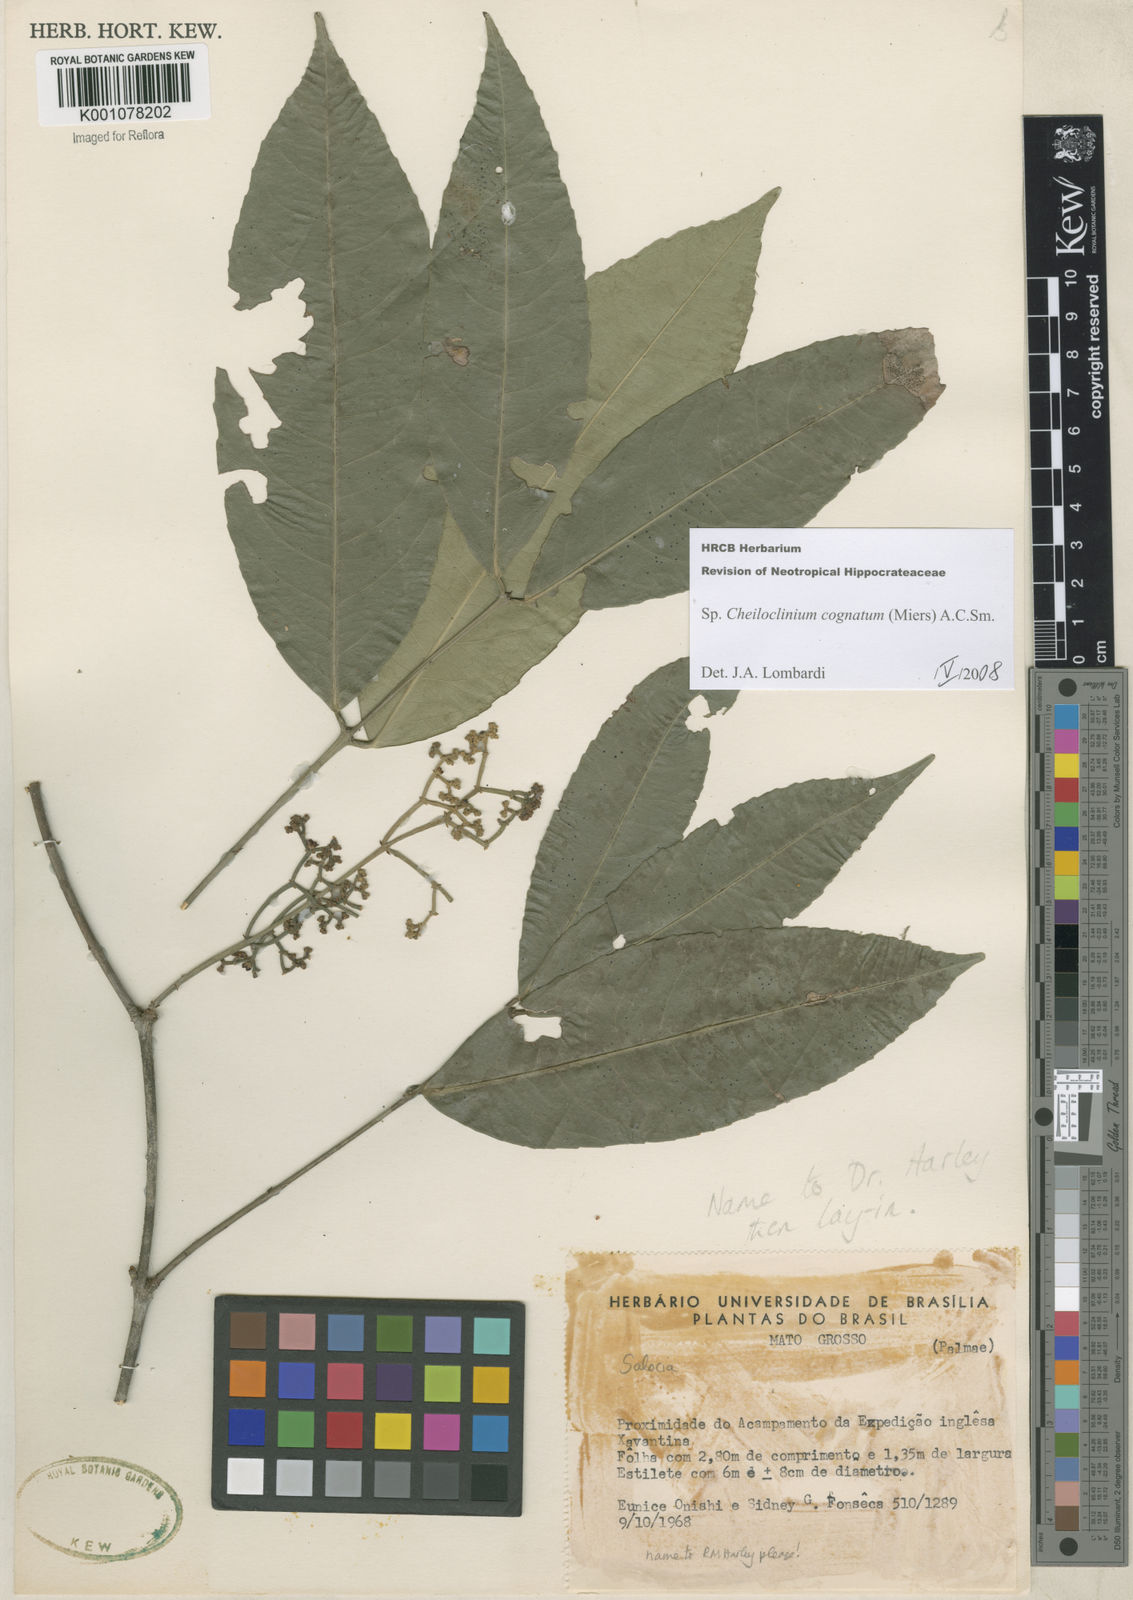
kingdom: Plantae
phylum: Tracheophyta
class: Magnoliopsida
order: Celastrales
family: Celastraceae
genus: Cheiloclinium
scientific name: Cheiloclinium cognatum
